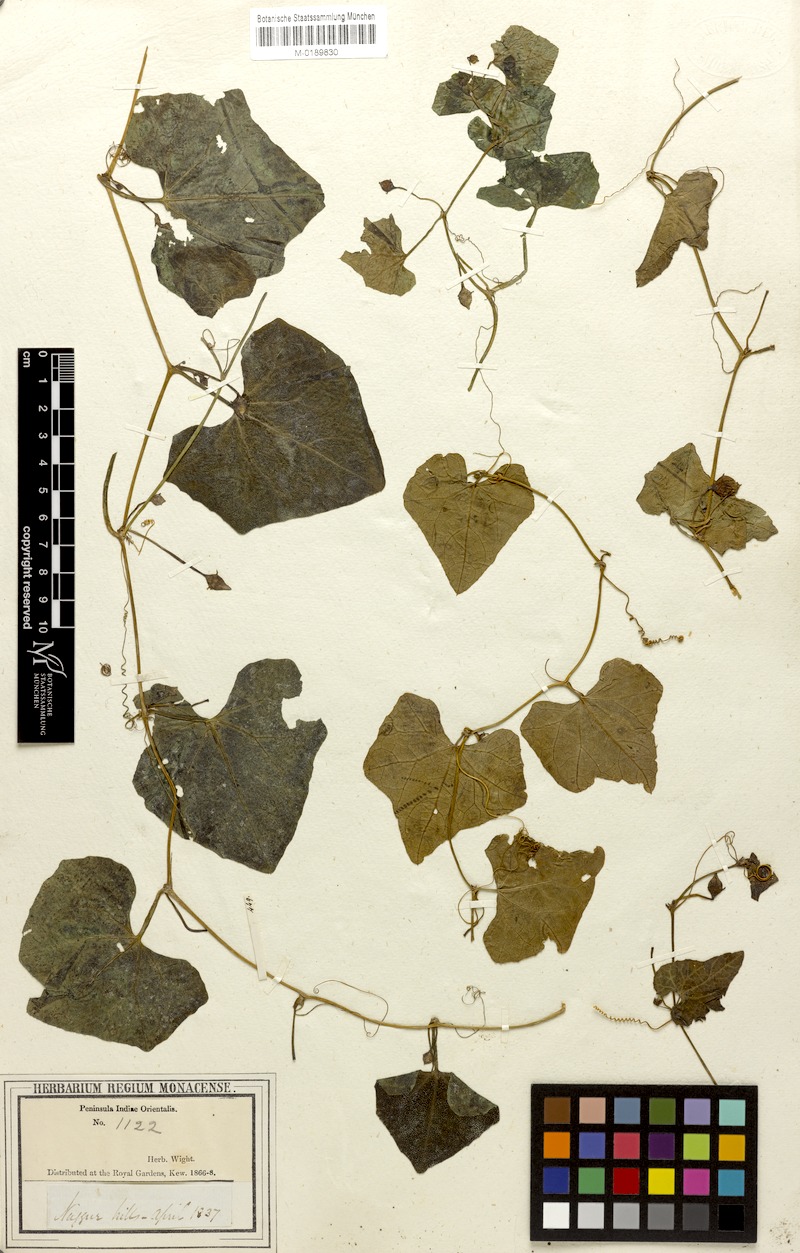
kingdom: Plantae
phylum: Tracheophyta
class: Magnoliopsida
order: Cucurbitales
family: Cucurbitaceae
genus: Coccinia
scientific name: Coccinia grandis
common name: Ivy gourd
